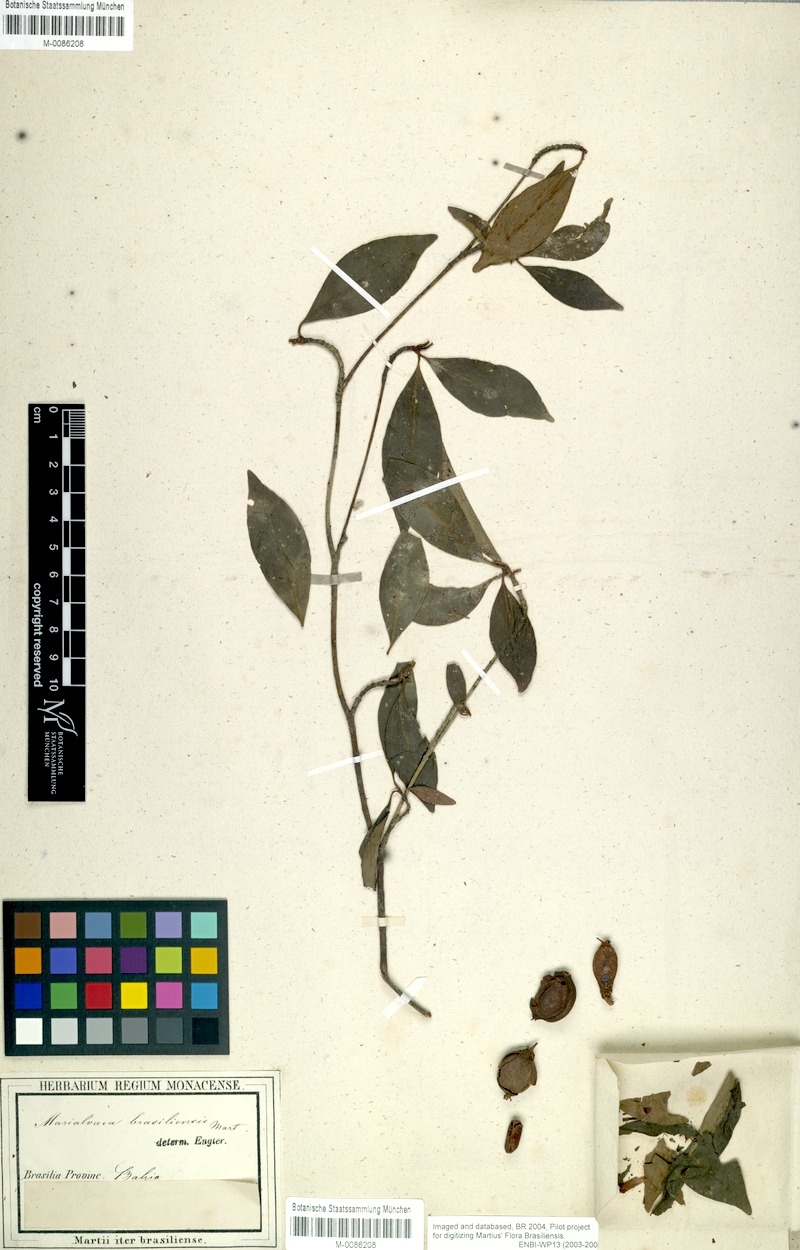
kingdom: Plantae
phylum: Tracheophyta
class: Magnoliopsida
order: Malpighiales
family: Clusiaceae
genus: Tovomita
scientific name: Tovomita fructipendula
